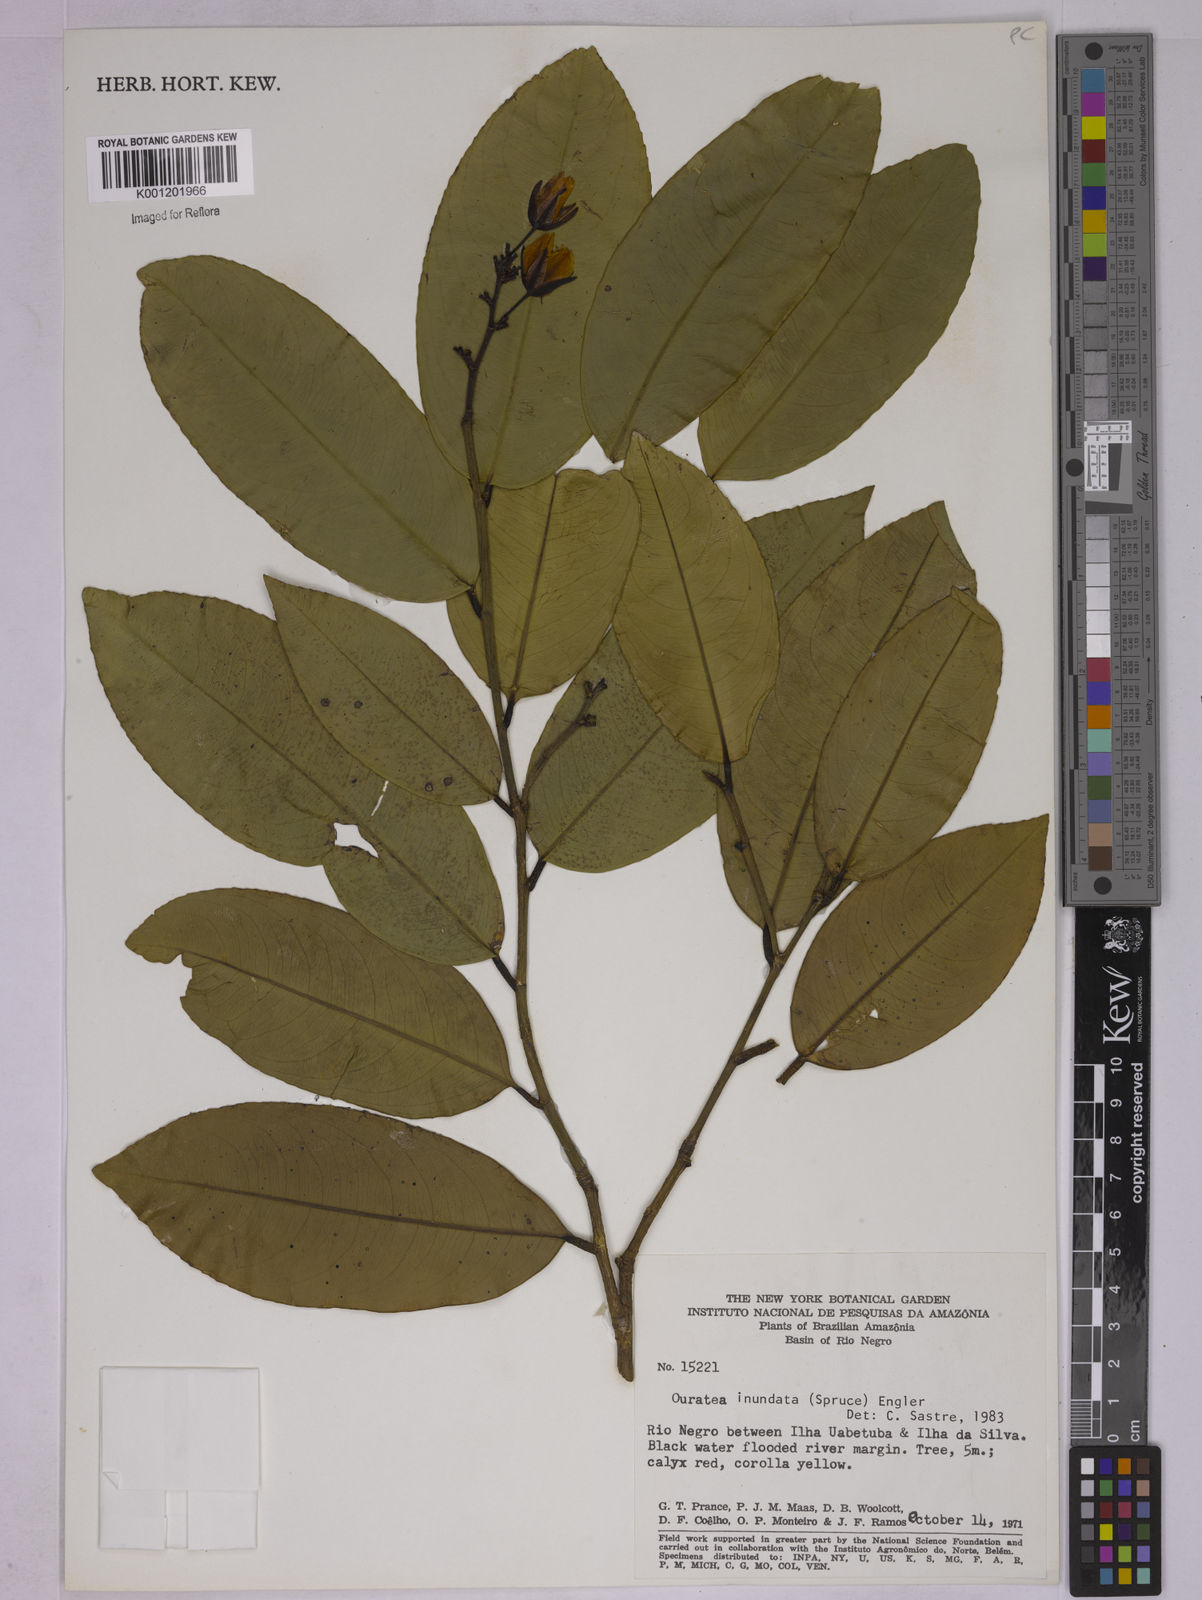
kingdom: Plantae
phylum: Tracheophyta
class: Magnoliopsida
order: Malpighiales
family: Ochnaceae
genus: Ouratea
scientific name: Ouratea inundata
